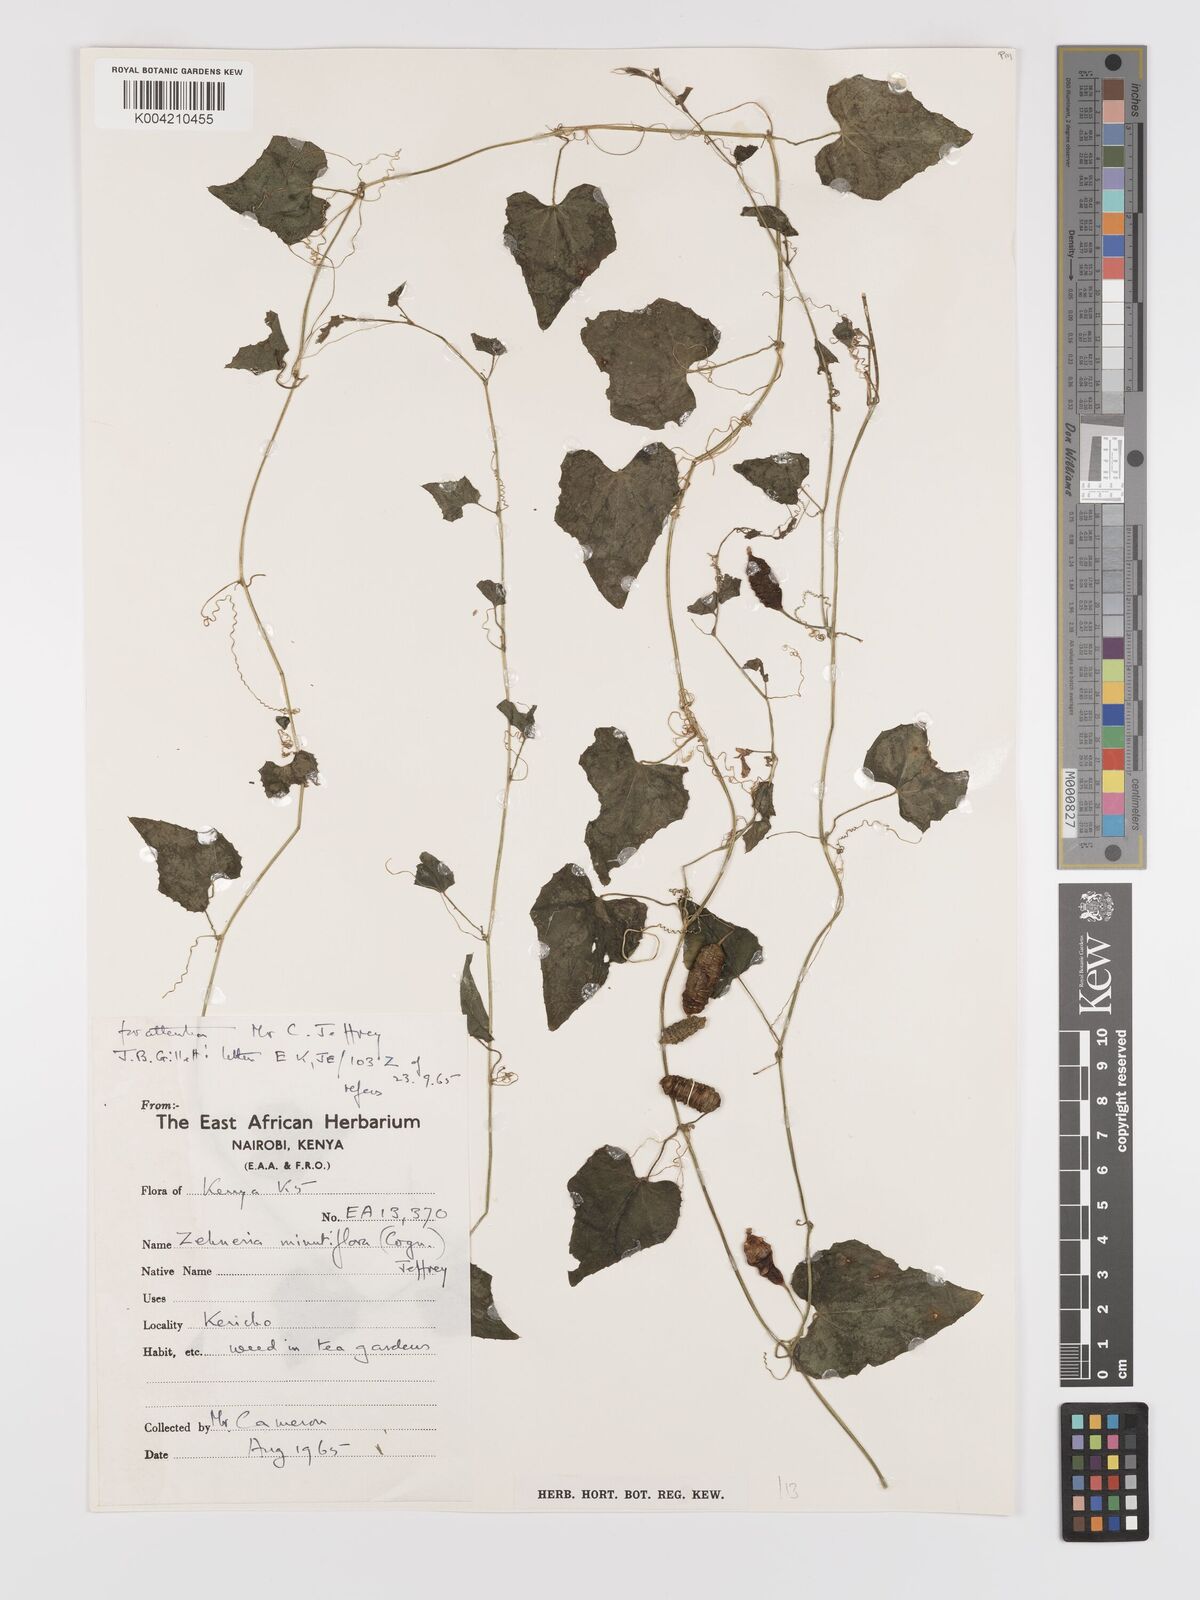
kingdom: Plantae
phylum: Tracheophyta
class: Magnoliopsida
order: Cucurbitales
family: Cucurbitaceae
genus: Zehneria
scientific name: Zehneria minutiflora
